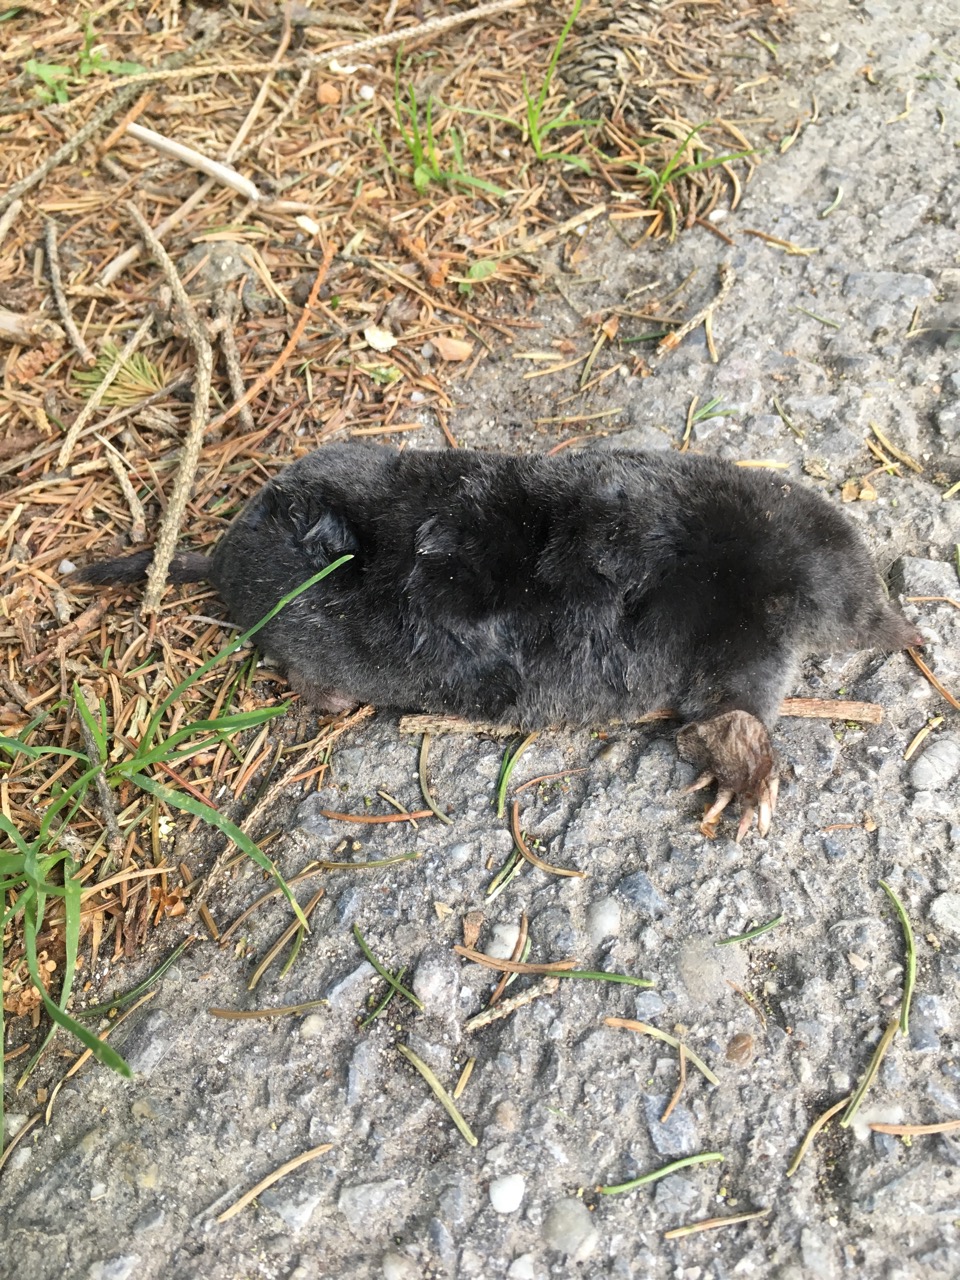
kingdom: Animalia
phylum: Chordata
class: Mammalia
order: Soricomorpha
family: Talpidae
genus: Talpa
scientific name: Talpa europaea
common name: European mole
